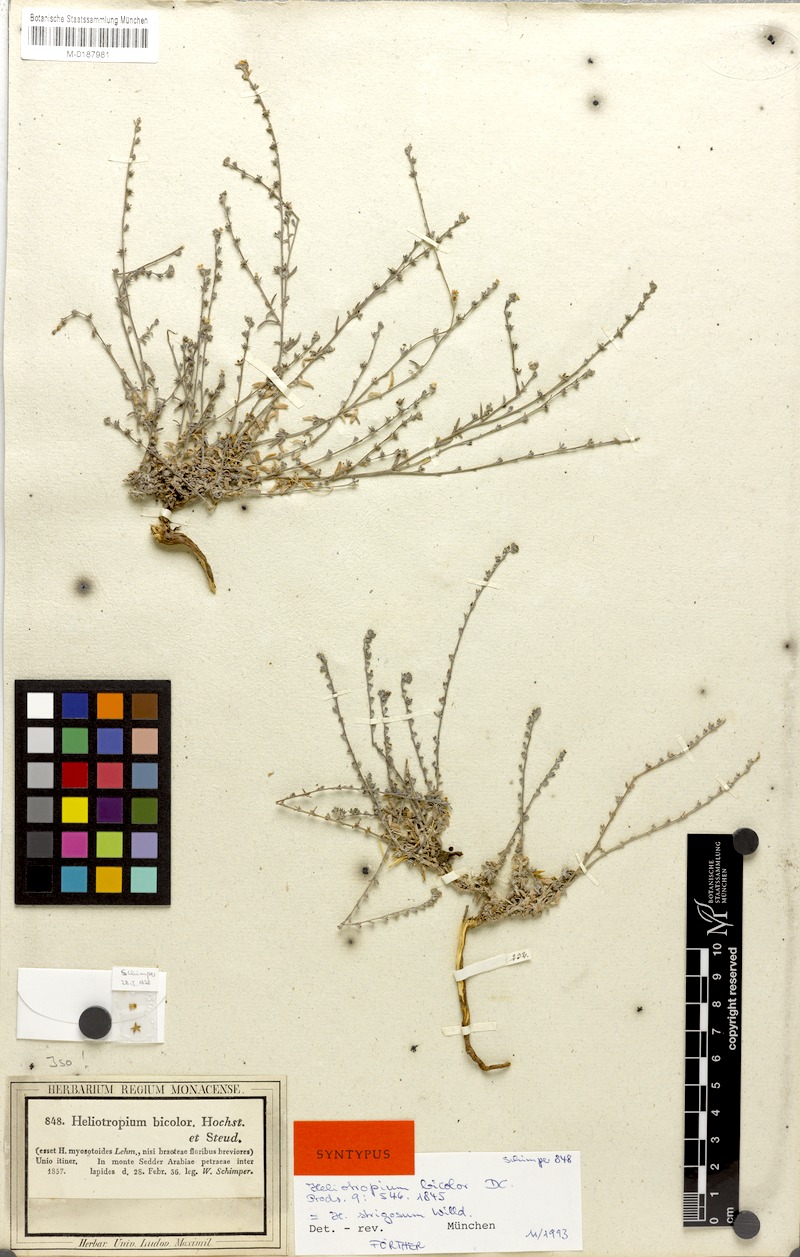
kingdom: Plantae
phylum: Tracheophyta
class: Magnoliopsida
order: Boraginales
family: Heliotropiaceae
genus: Euploca
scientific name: Euploca strigosa
